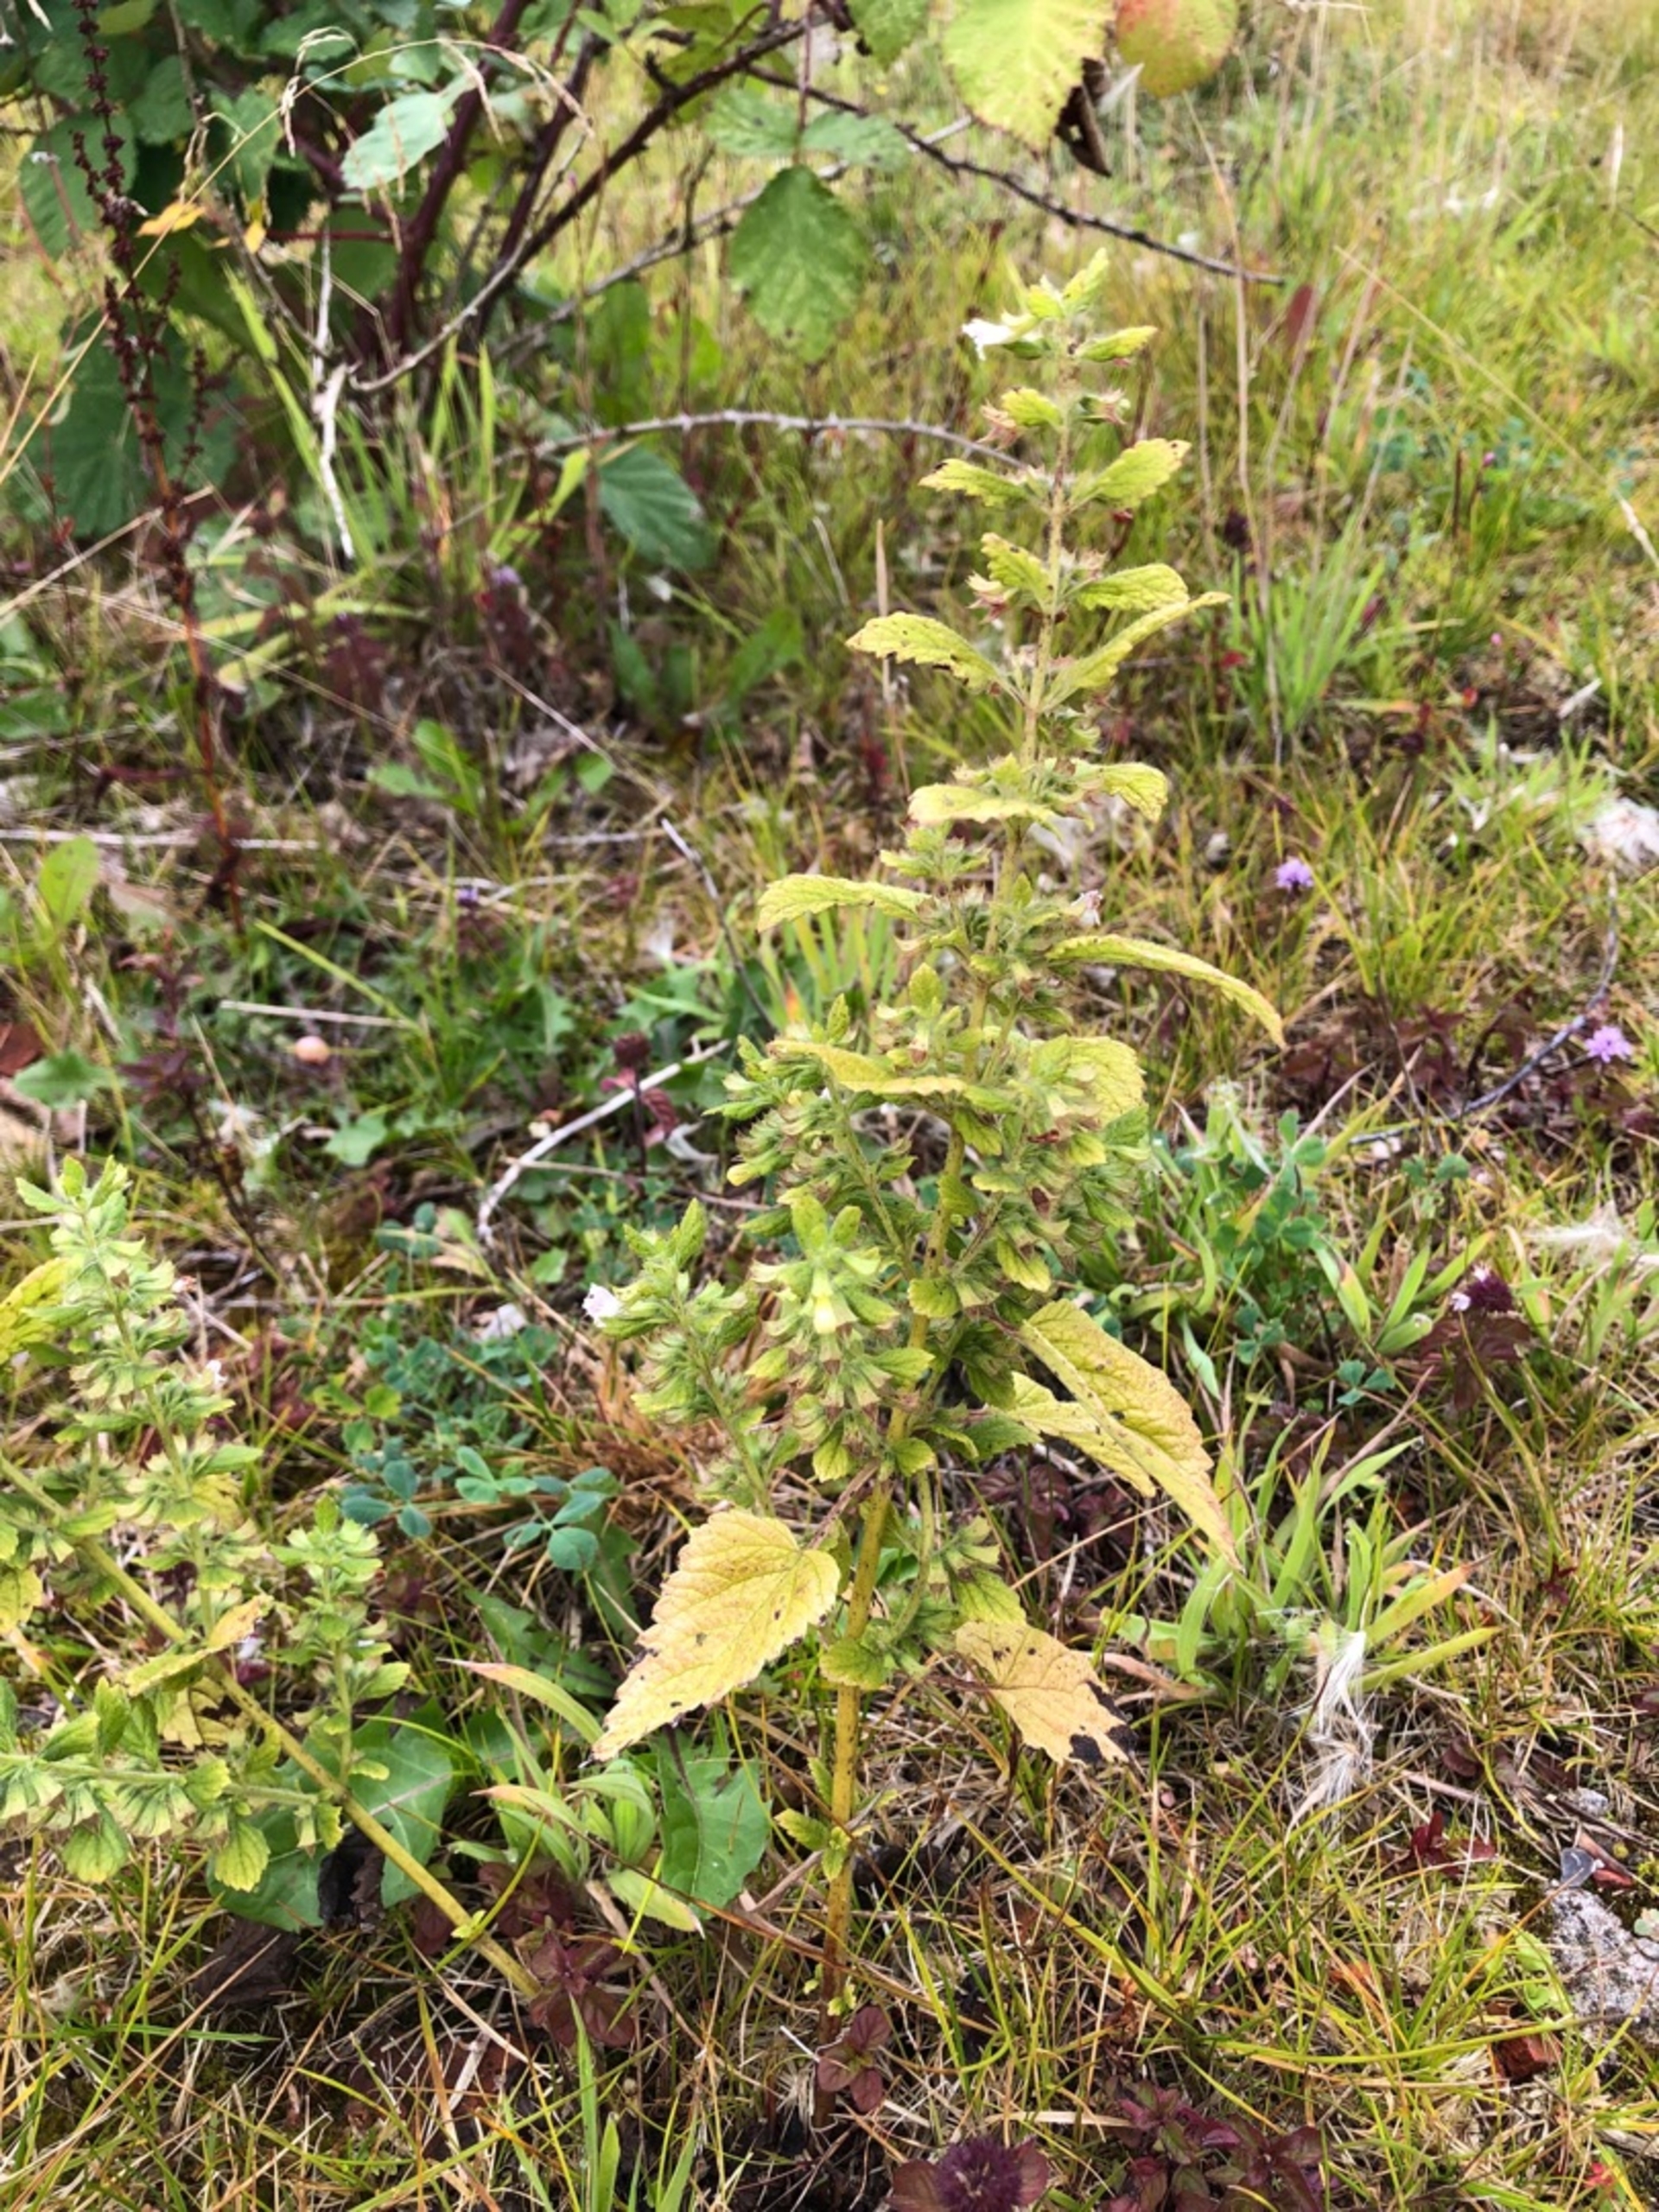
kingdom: Plantae
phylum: Tracheophyta
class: Magnoliopsida
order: Lamiales
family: Lamiaceae
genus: Melissa
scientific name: Melissa officinalis
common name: Citronmelisse
